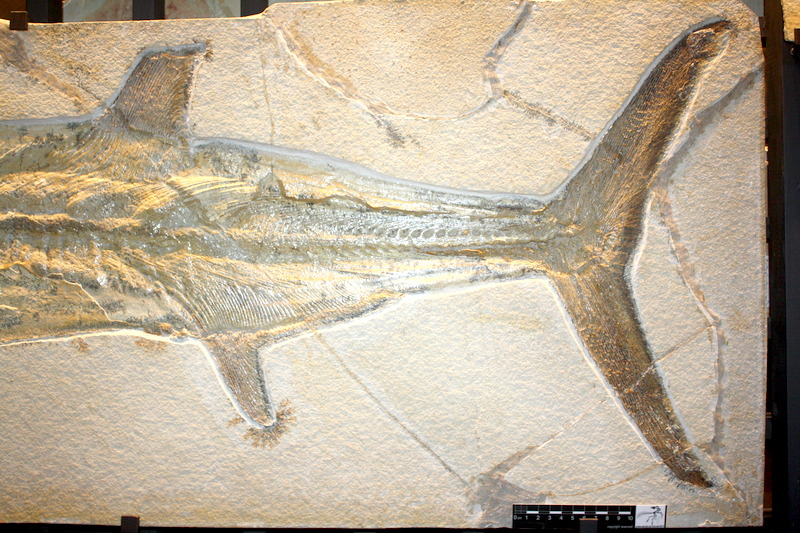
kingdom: Animalia
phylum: Chordata
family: Pachycormidae
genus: Orthocormus
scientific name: Orthocormus cornutus
